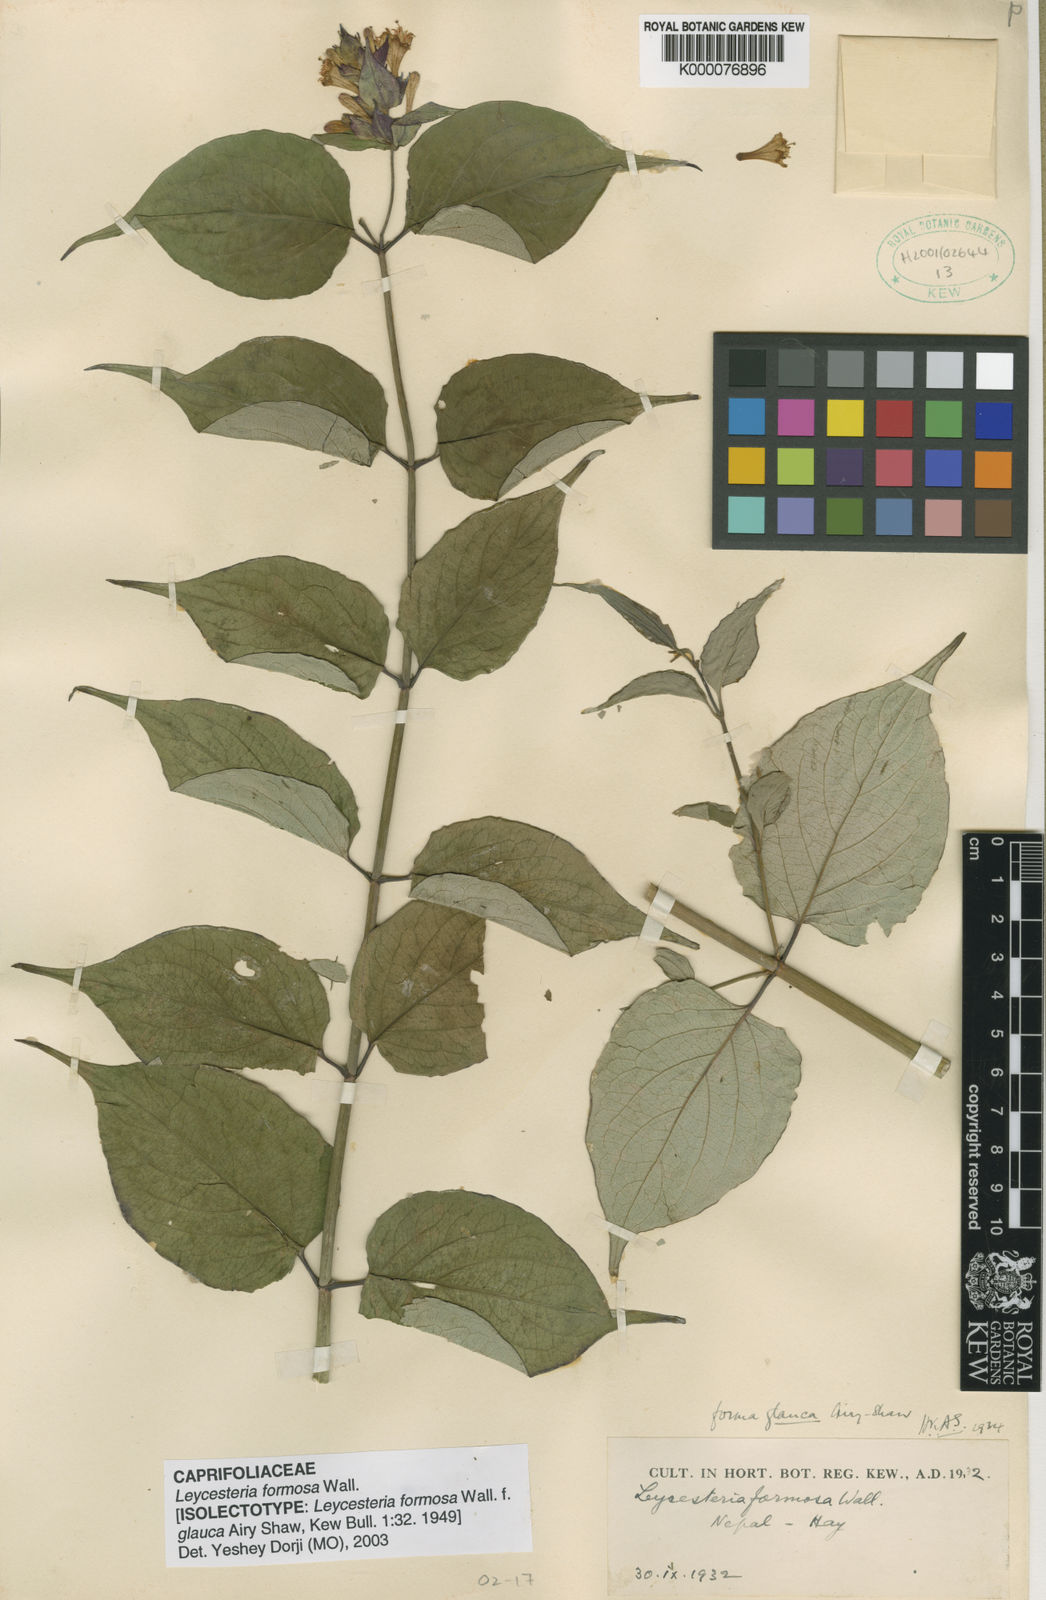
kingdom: Plantae
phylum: Tracheophyta
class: Magnoliopsida
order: Dipsacales
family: Caprifoliaceae
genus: Leycesteria
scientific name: Leycesteria formosa
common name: Himalayan honeysuckle
